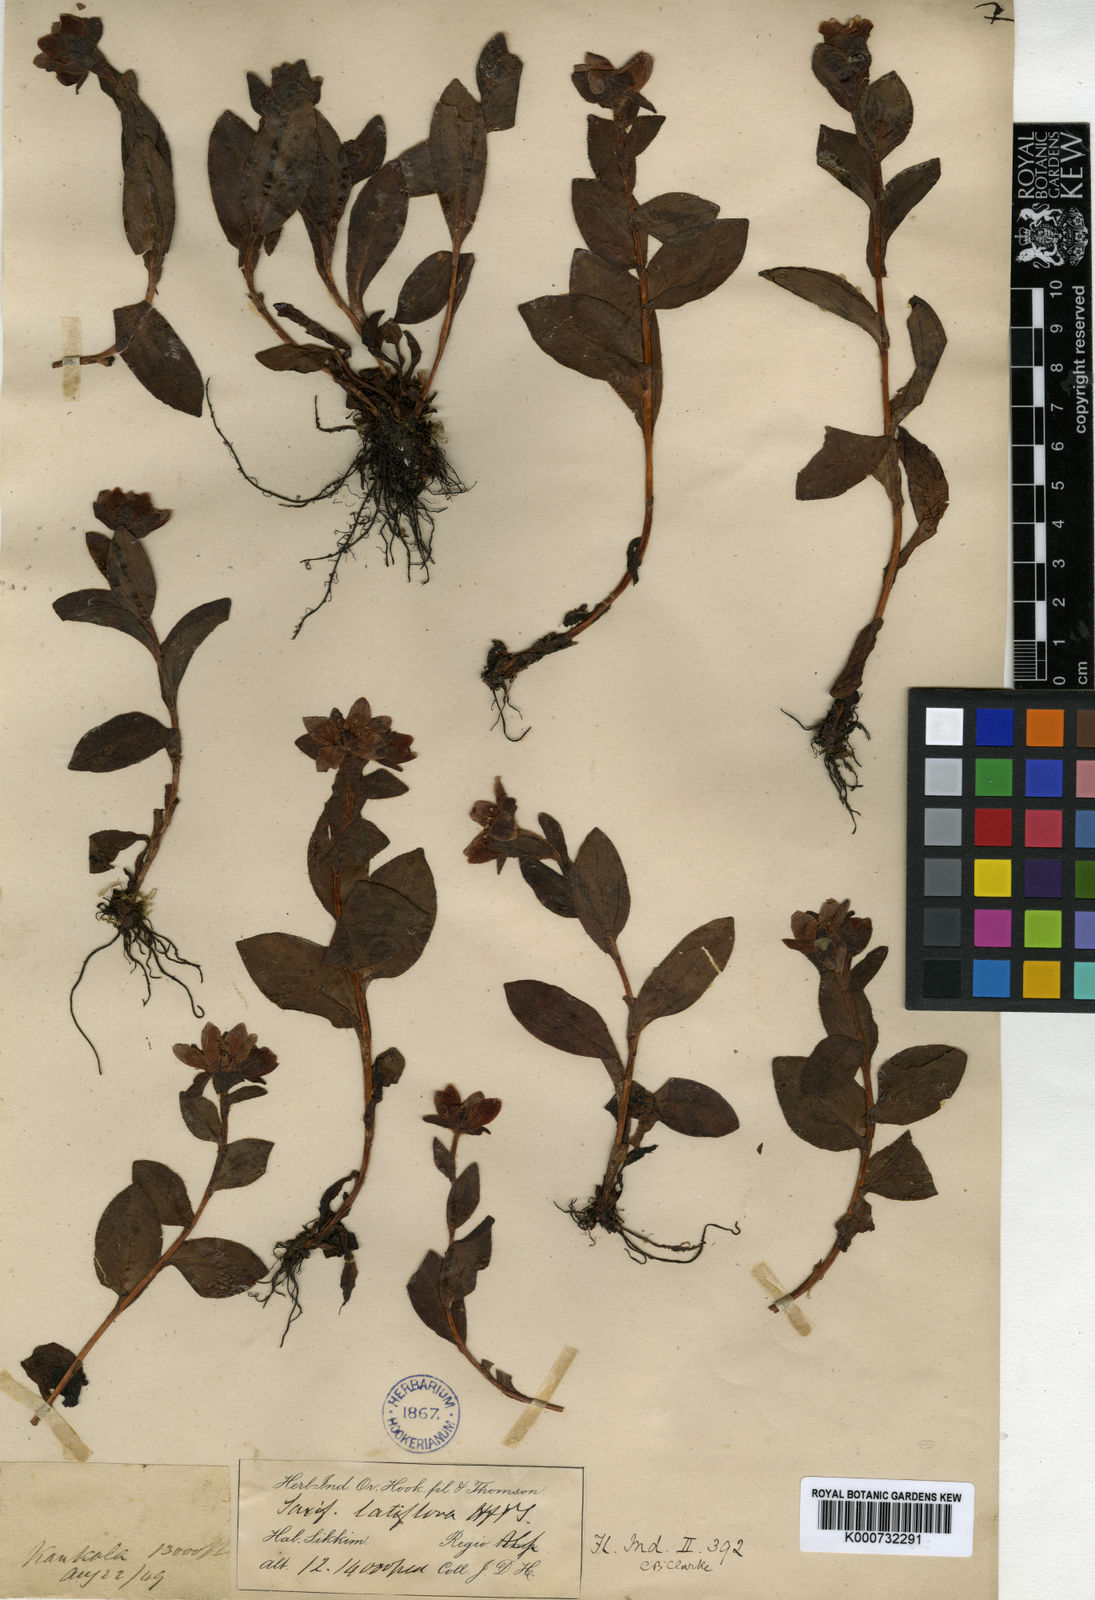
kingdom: Plantae
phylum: Tracheophyta
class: Magnoliopsida
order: Saxifragales
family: Saxifragaceae
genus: Saxifraga
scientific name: Saxifraga
